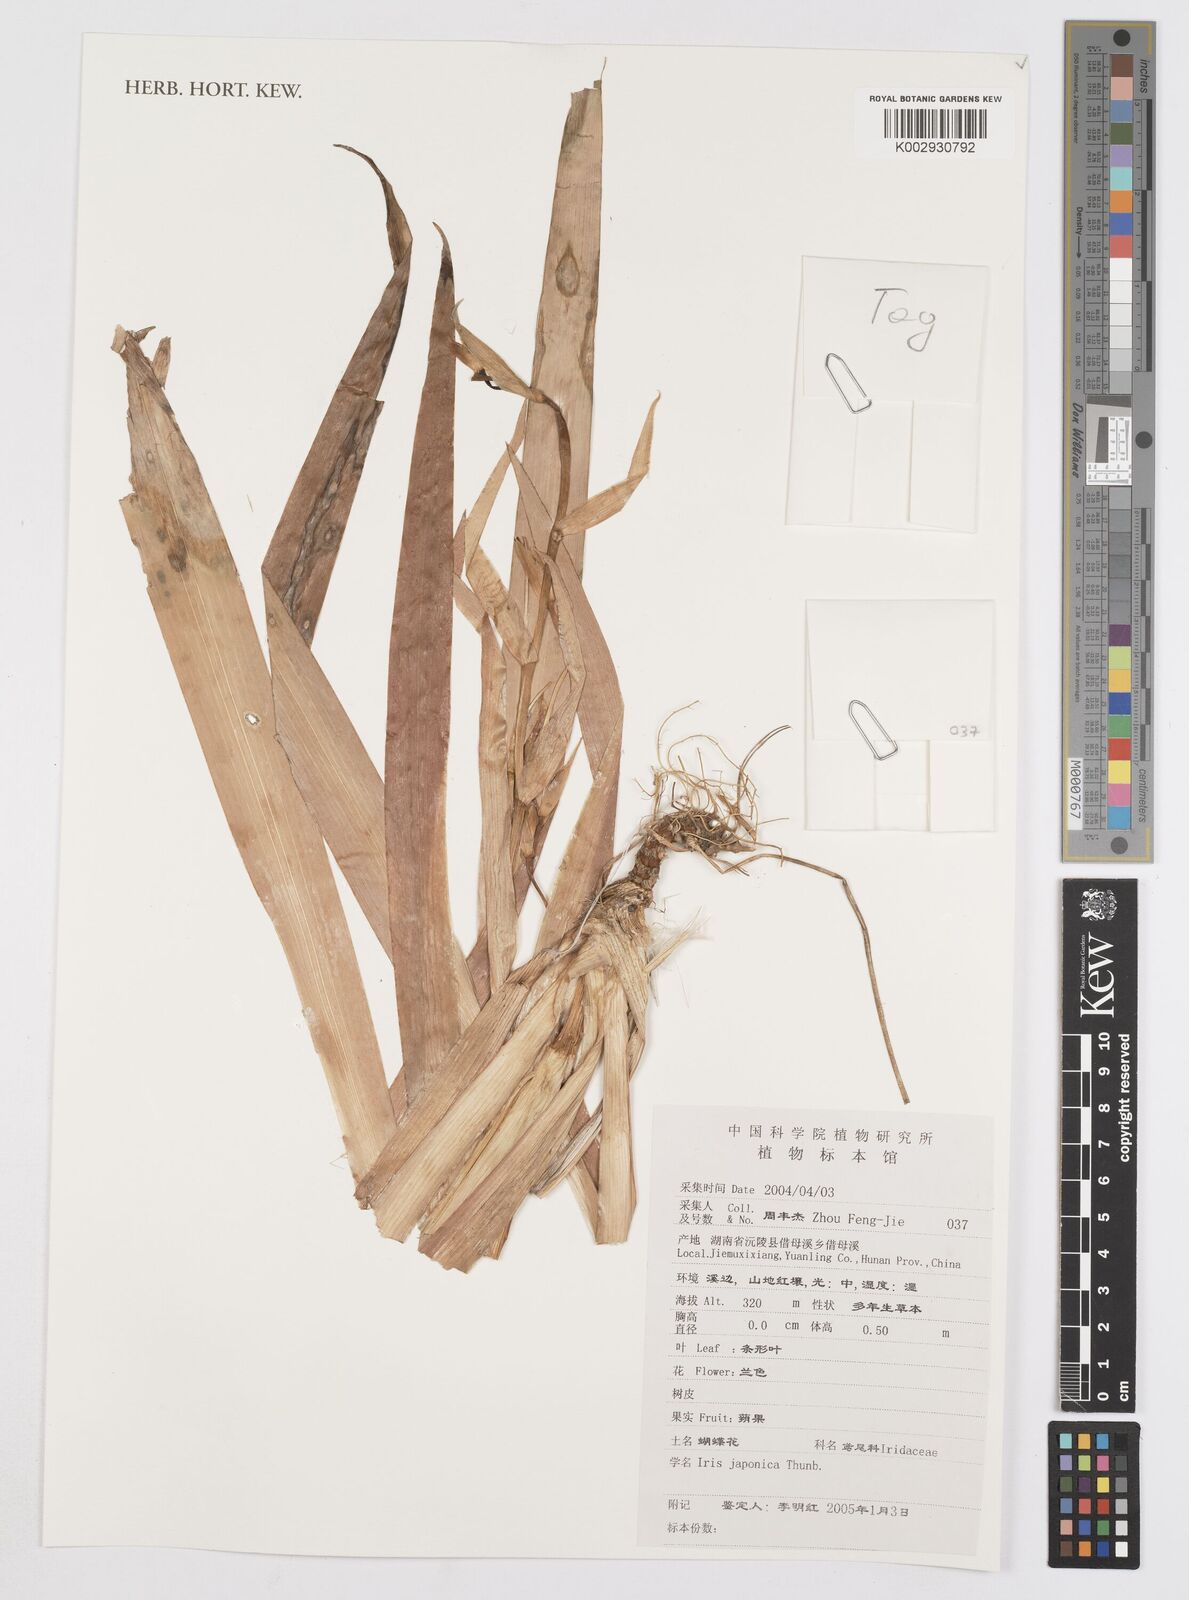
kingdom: Plantae
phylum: Tracheophyta
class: Liliopsida
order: Asparagales
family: Iridaceae
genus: Iris
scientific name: Iris japonica
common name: Butterfly-flower
